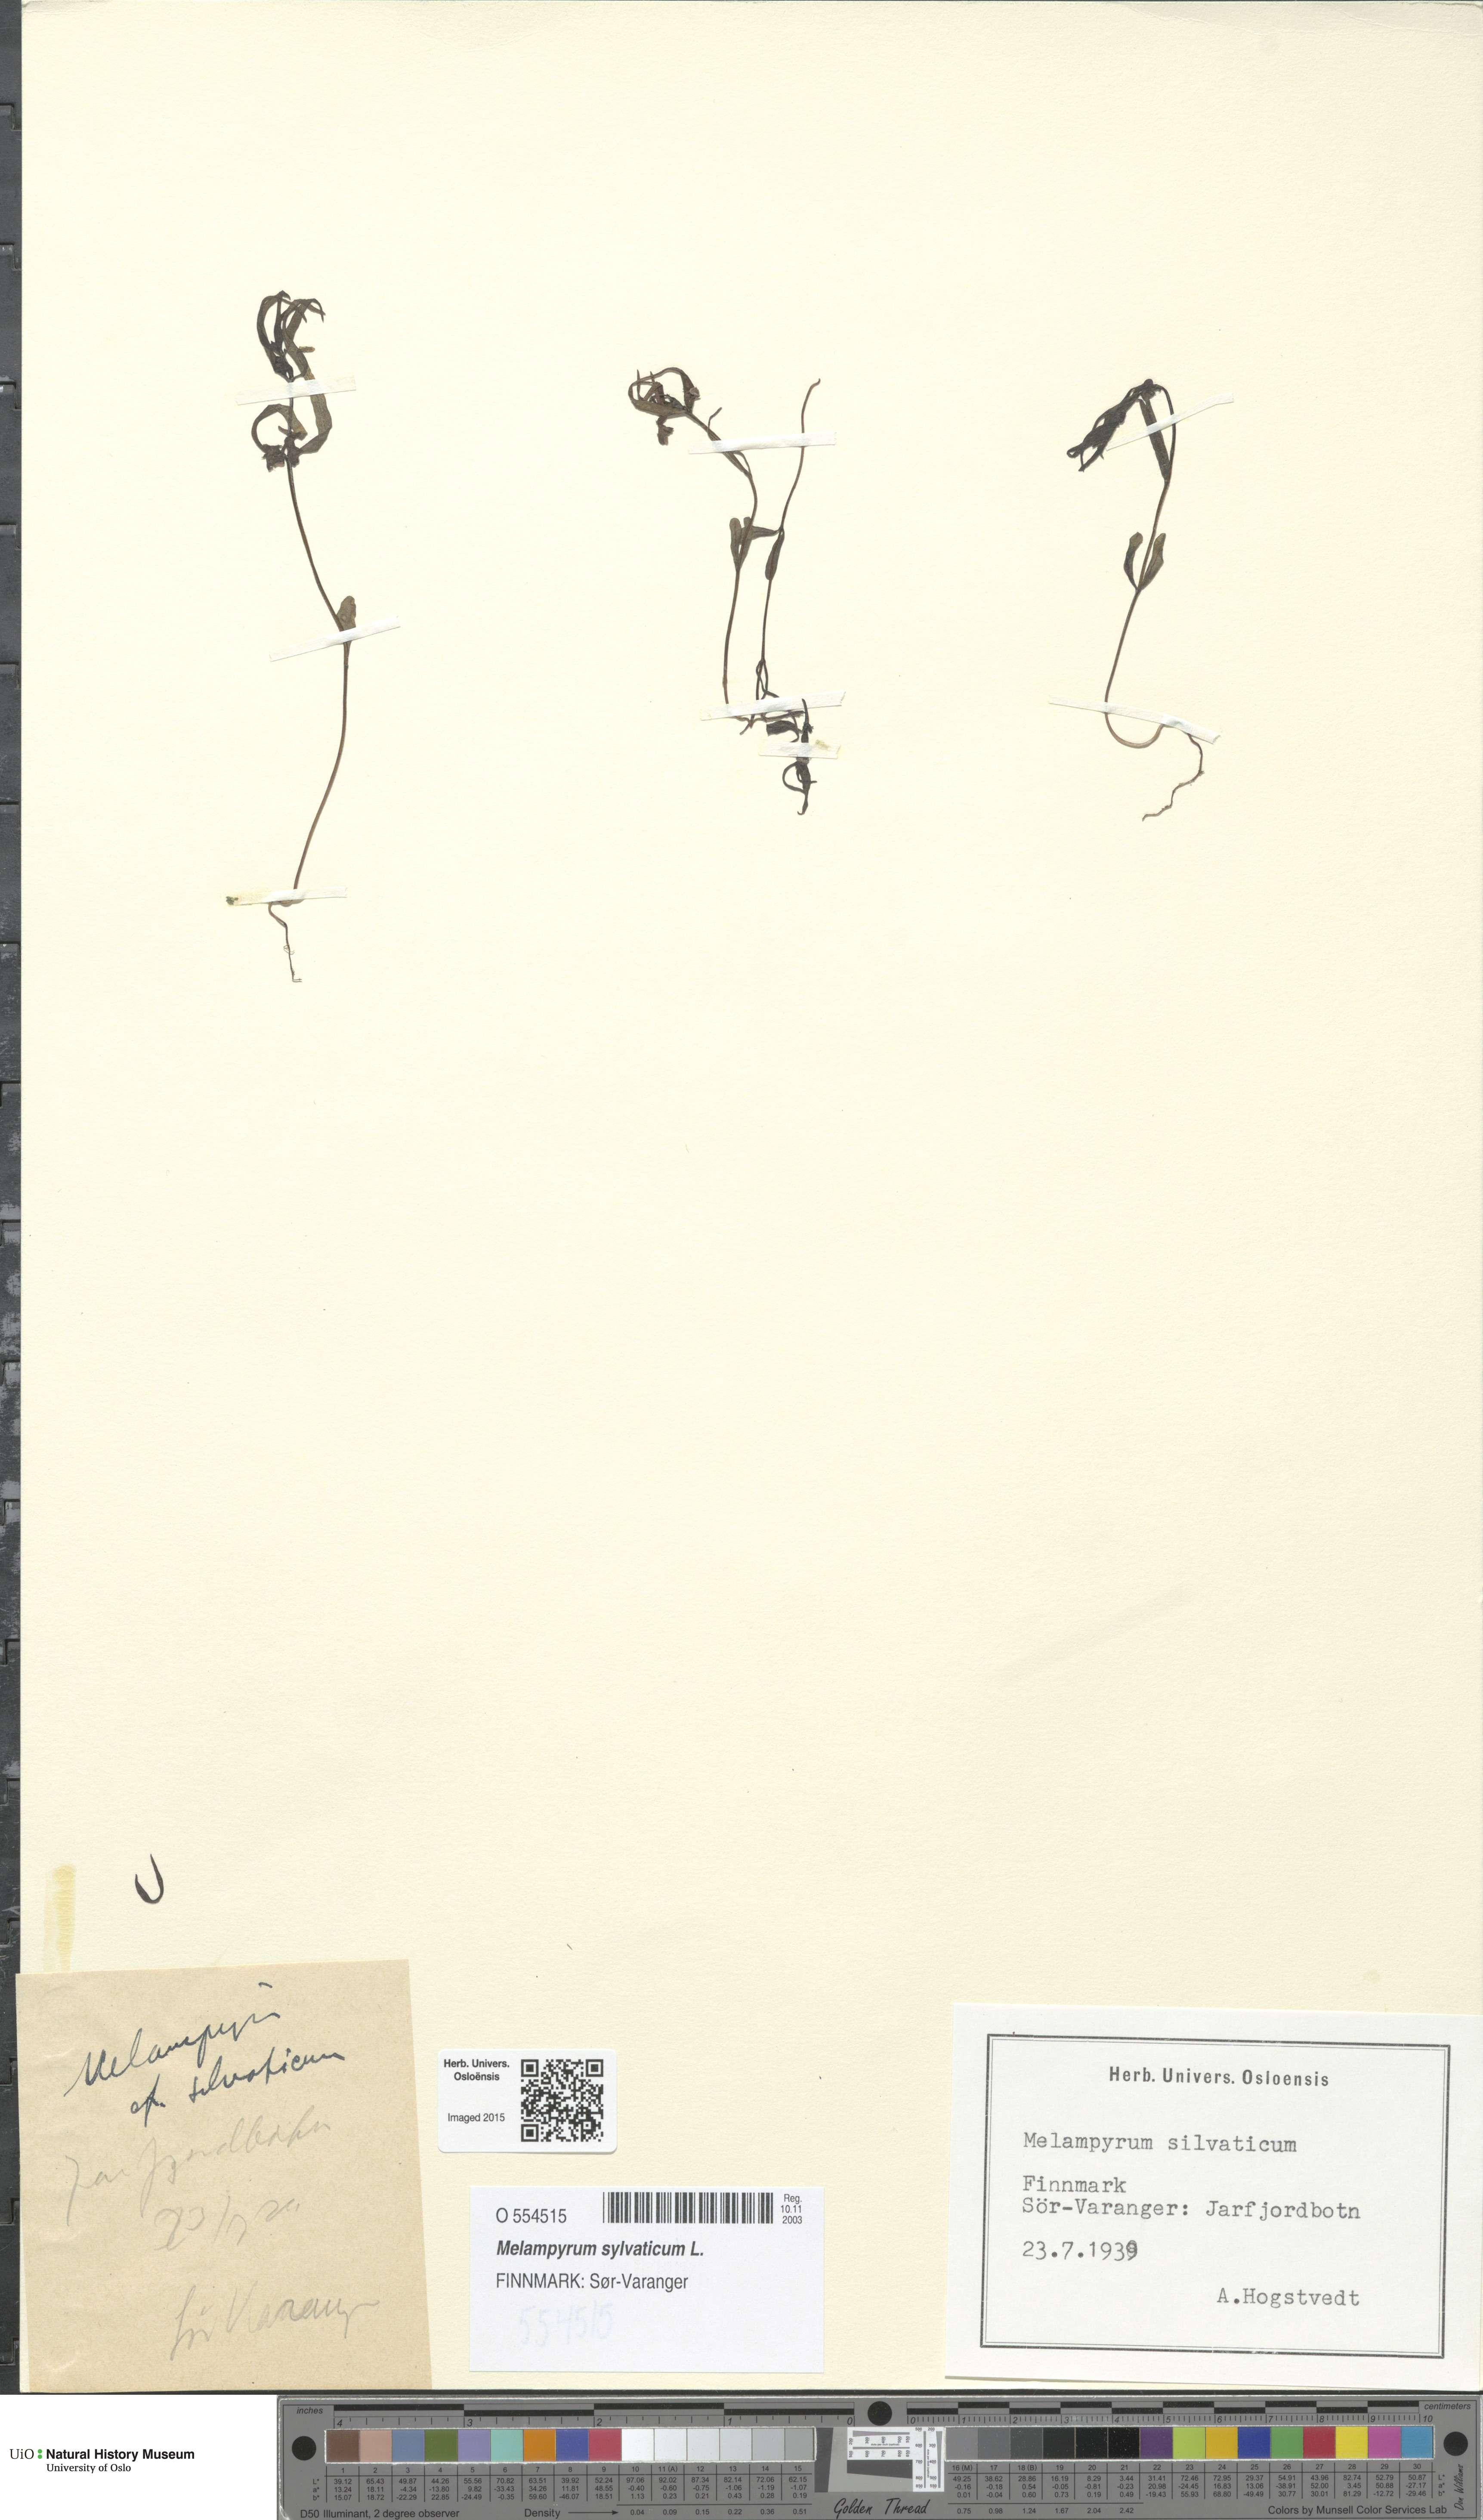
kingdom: Plantae
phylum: Tracheophyta
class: Magnoliopsida
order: Lamiales
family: Orobanchaceae
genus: Melampyrum
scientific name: Melampyrum sylvaticum
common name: Small cow-wheat
